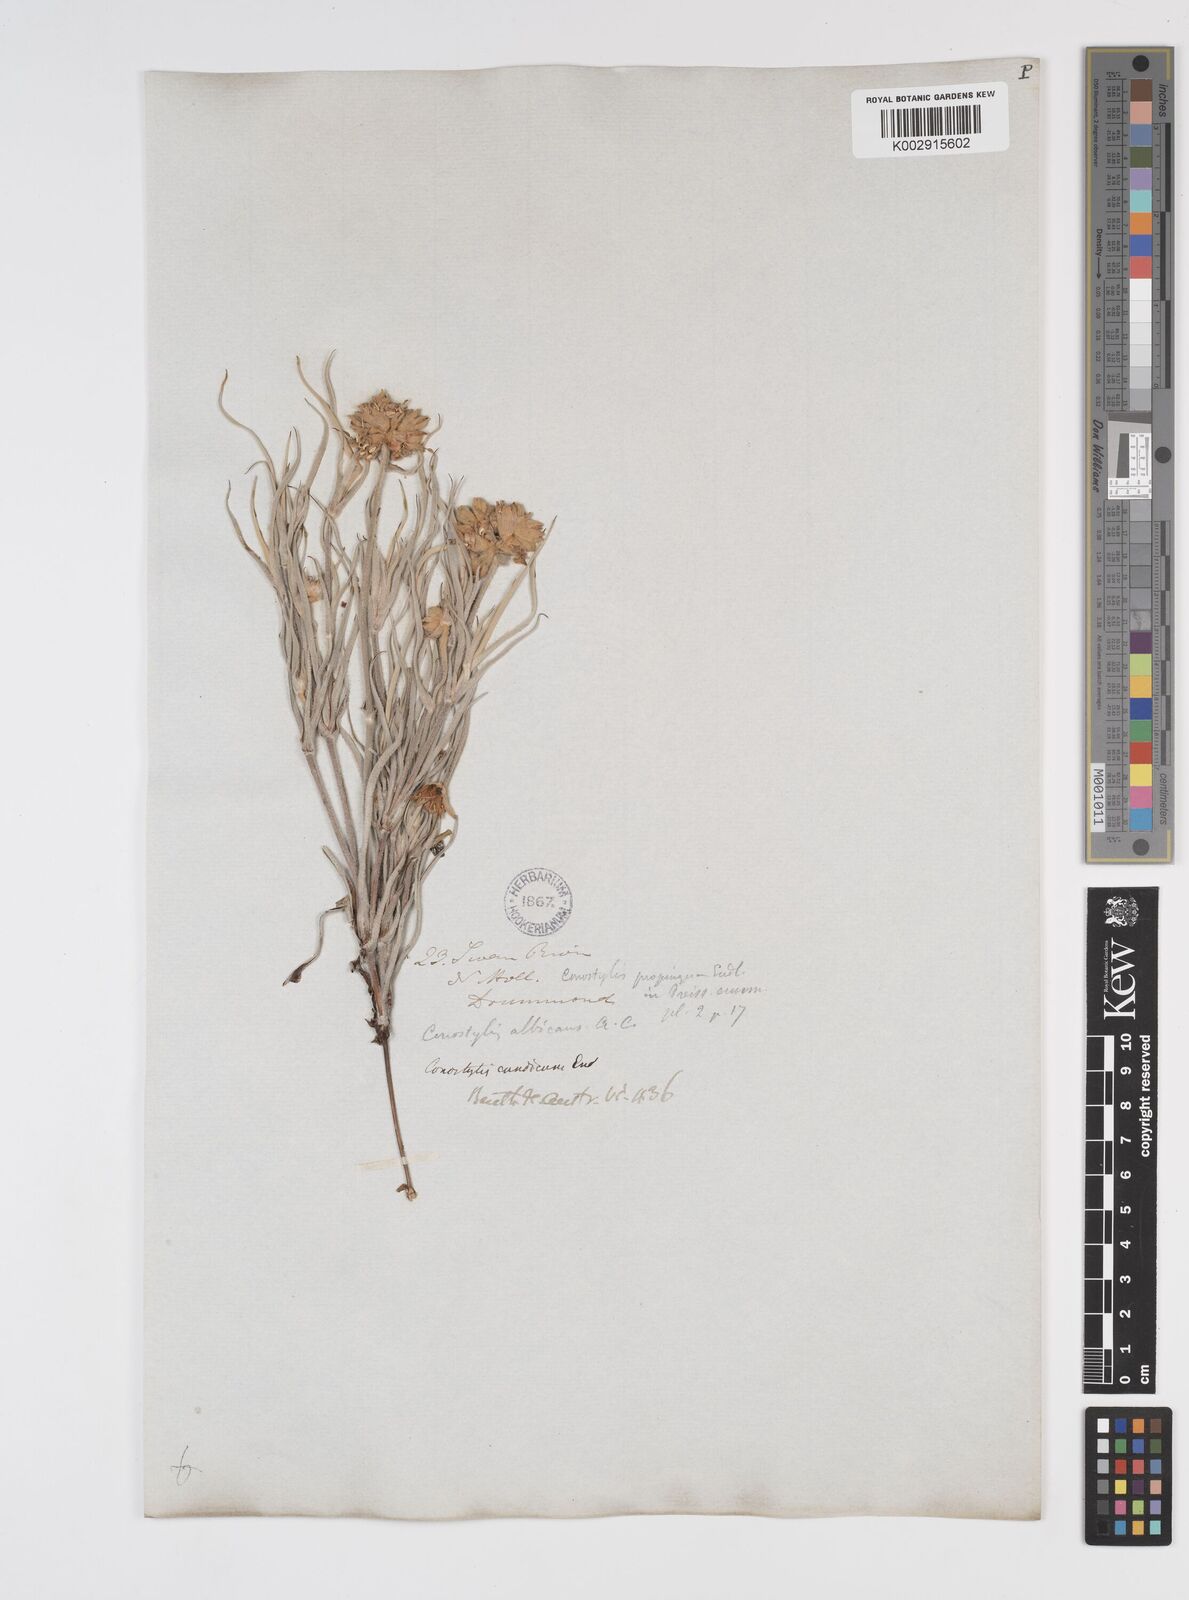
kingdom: Plantae
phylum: Tracheophyta
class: Liliopsida
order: Commelinales
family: Haemodoraceae
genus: Conostylis
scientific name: Conostylis candicans
